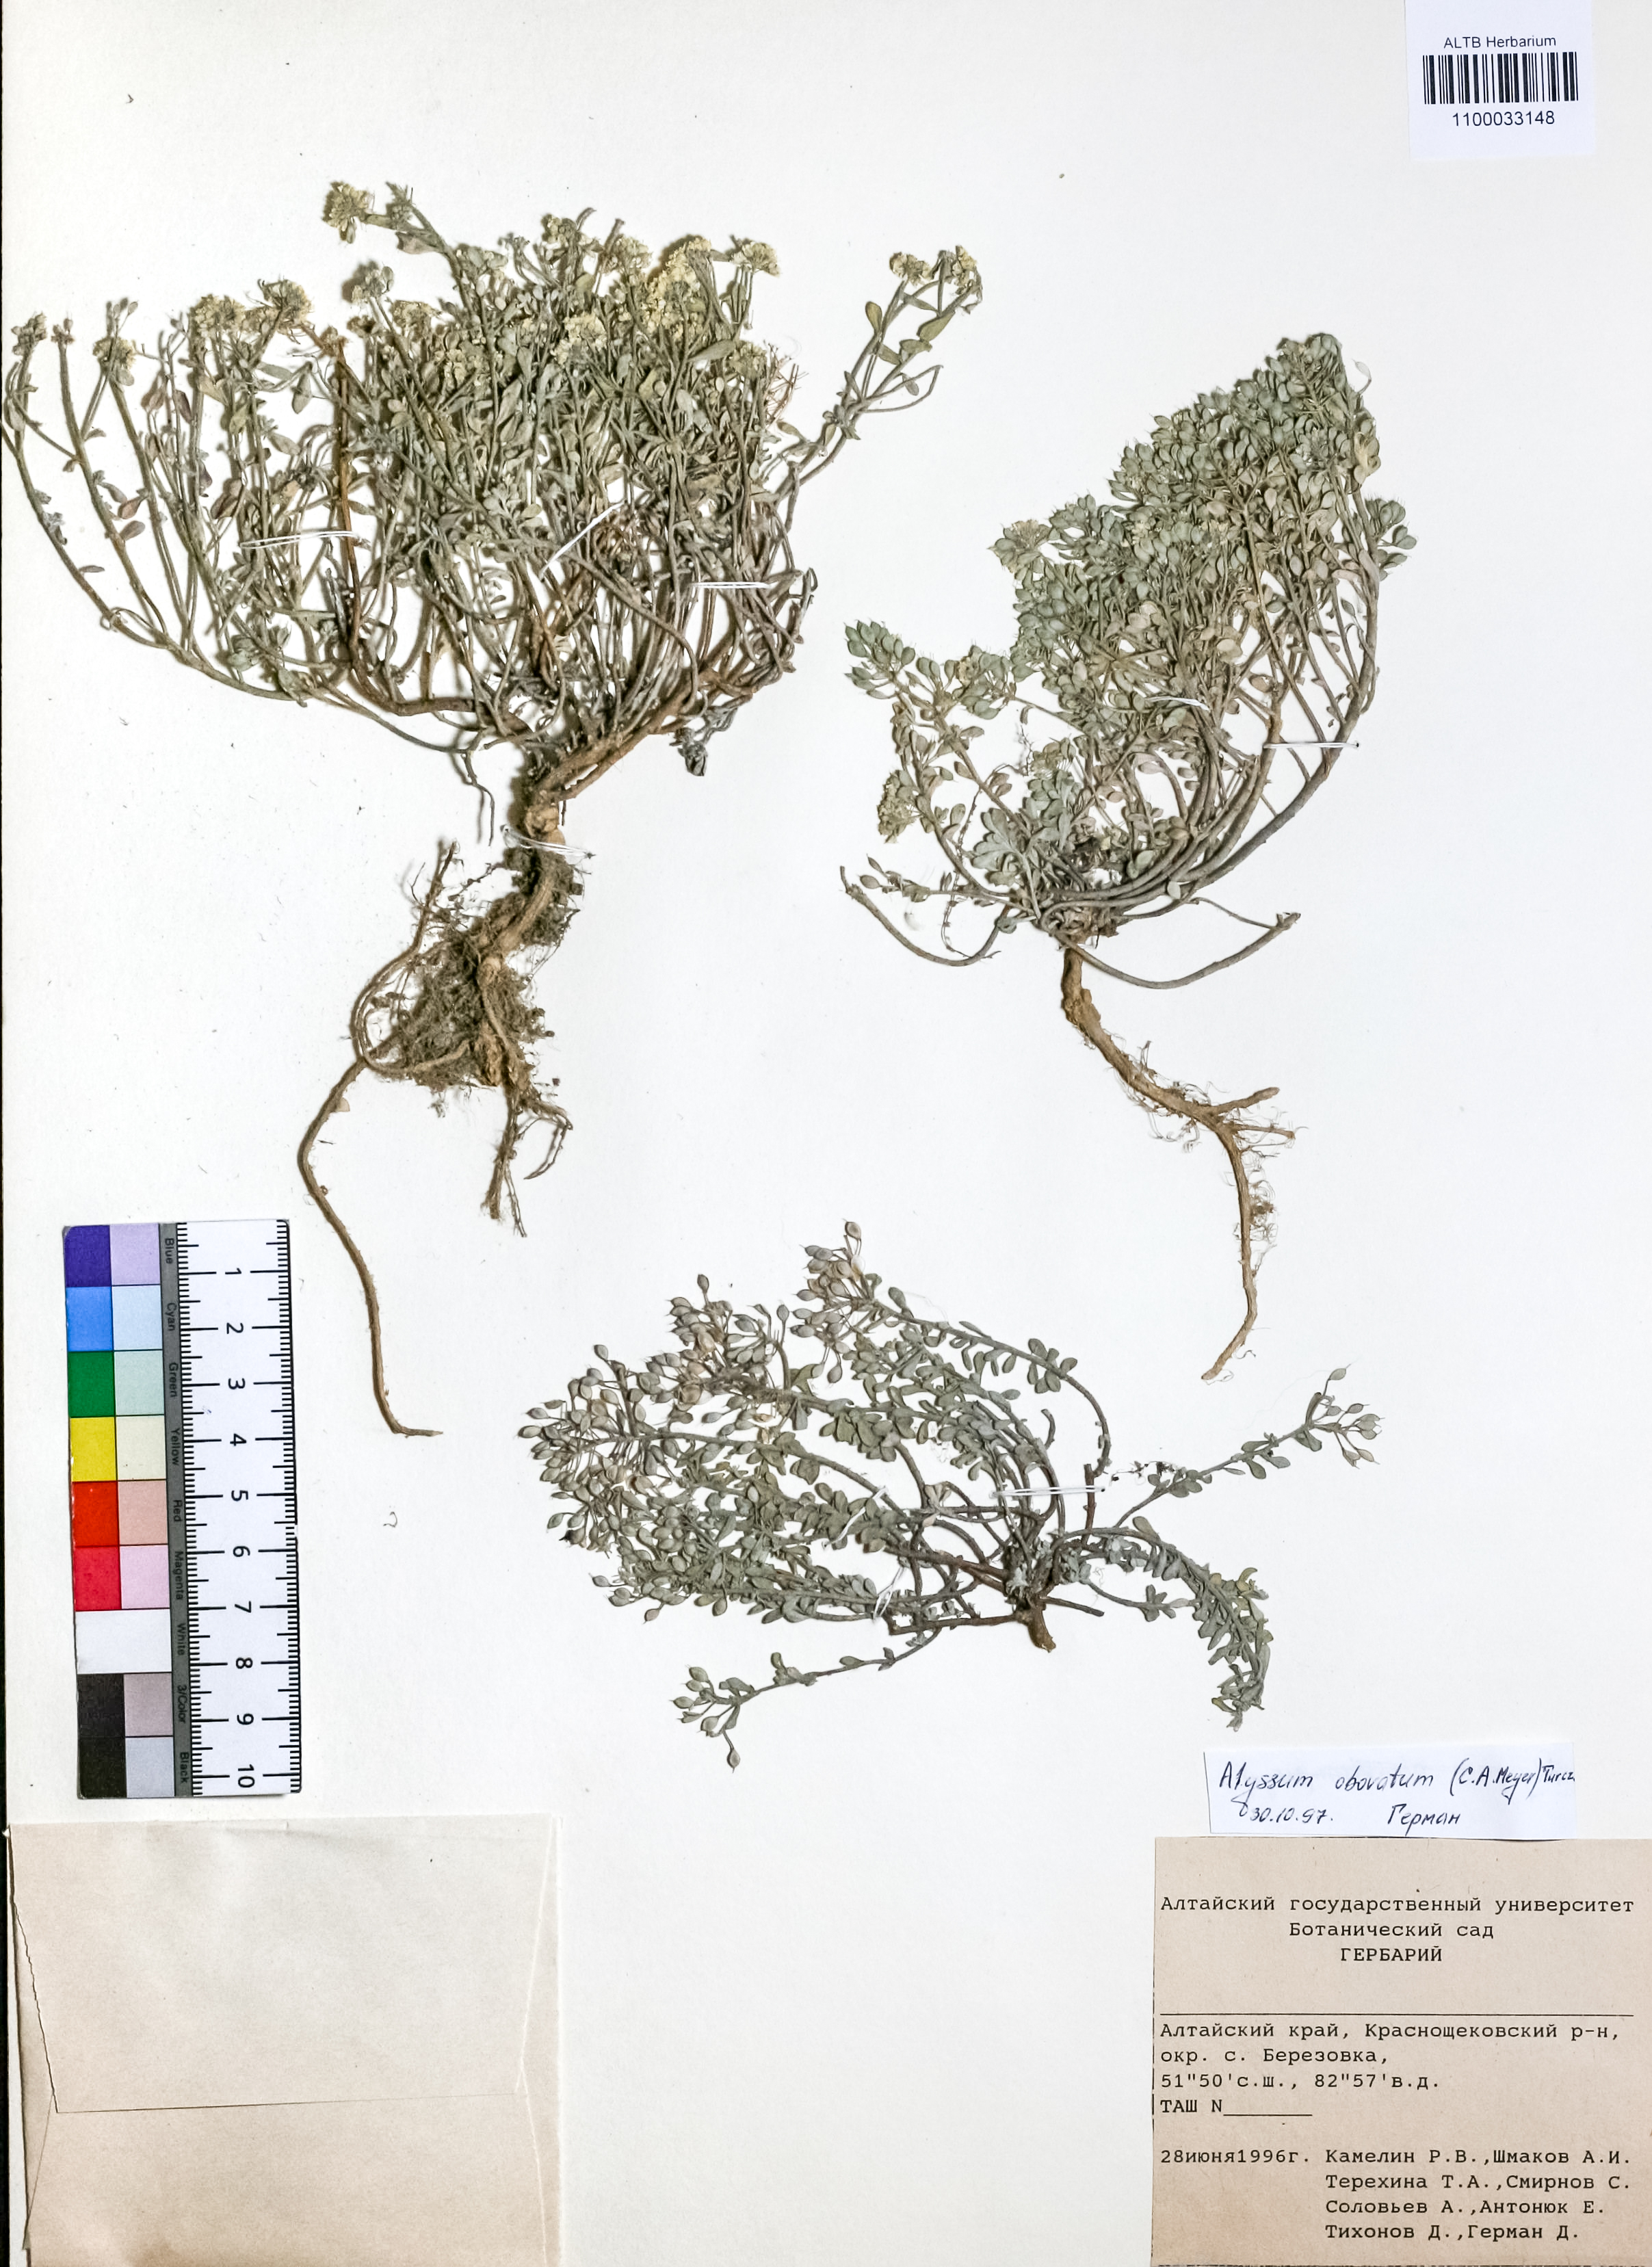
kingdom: Plantae
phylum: Tracheophyta
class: Magnoliopsida
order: Brassicales
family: Brassicaceae
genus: Odontarrhena
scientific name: Odontarrhena obovata
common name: American alyssum
